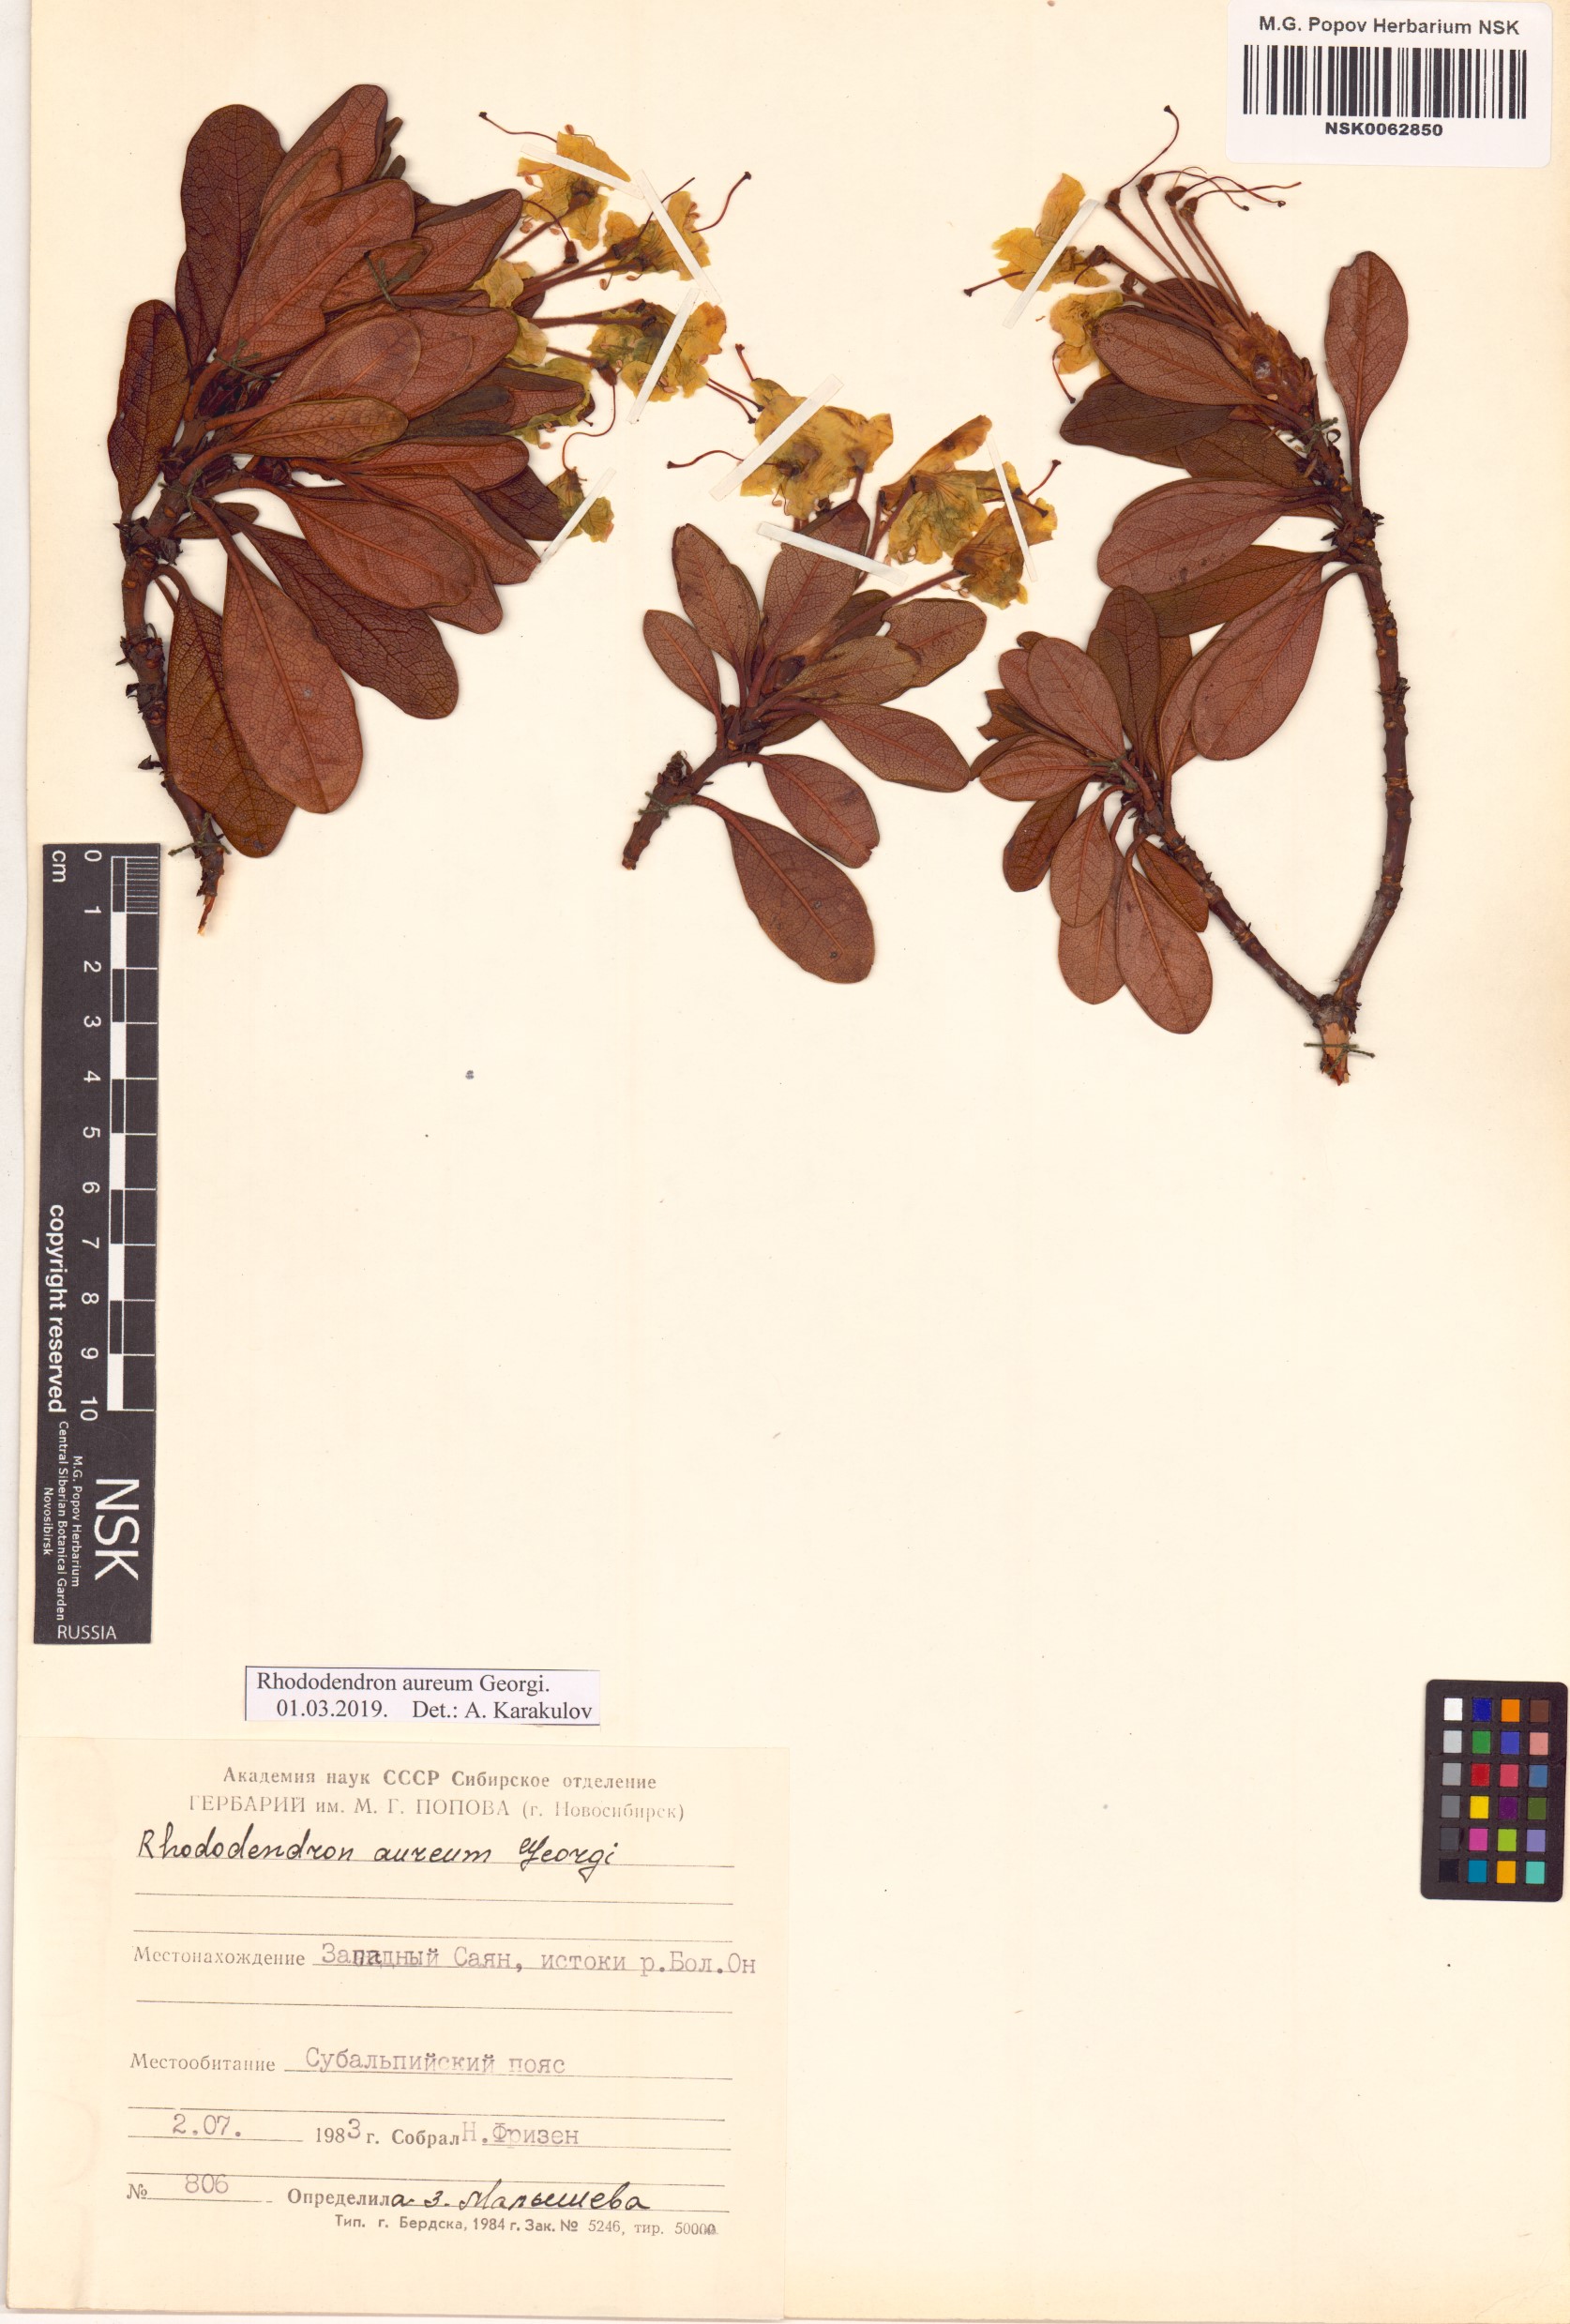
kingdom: Plantae
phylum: Tracheophyta
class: Magnoliopsida
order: Ericales
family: Ericaceae
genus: Rhododendron
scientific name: Rhododendron aureum
